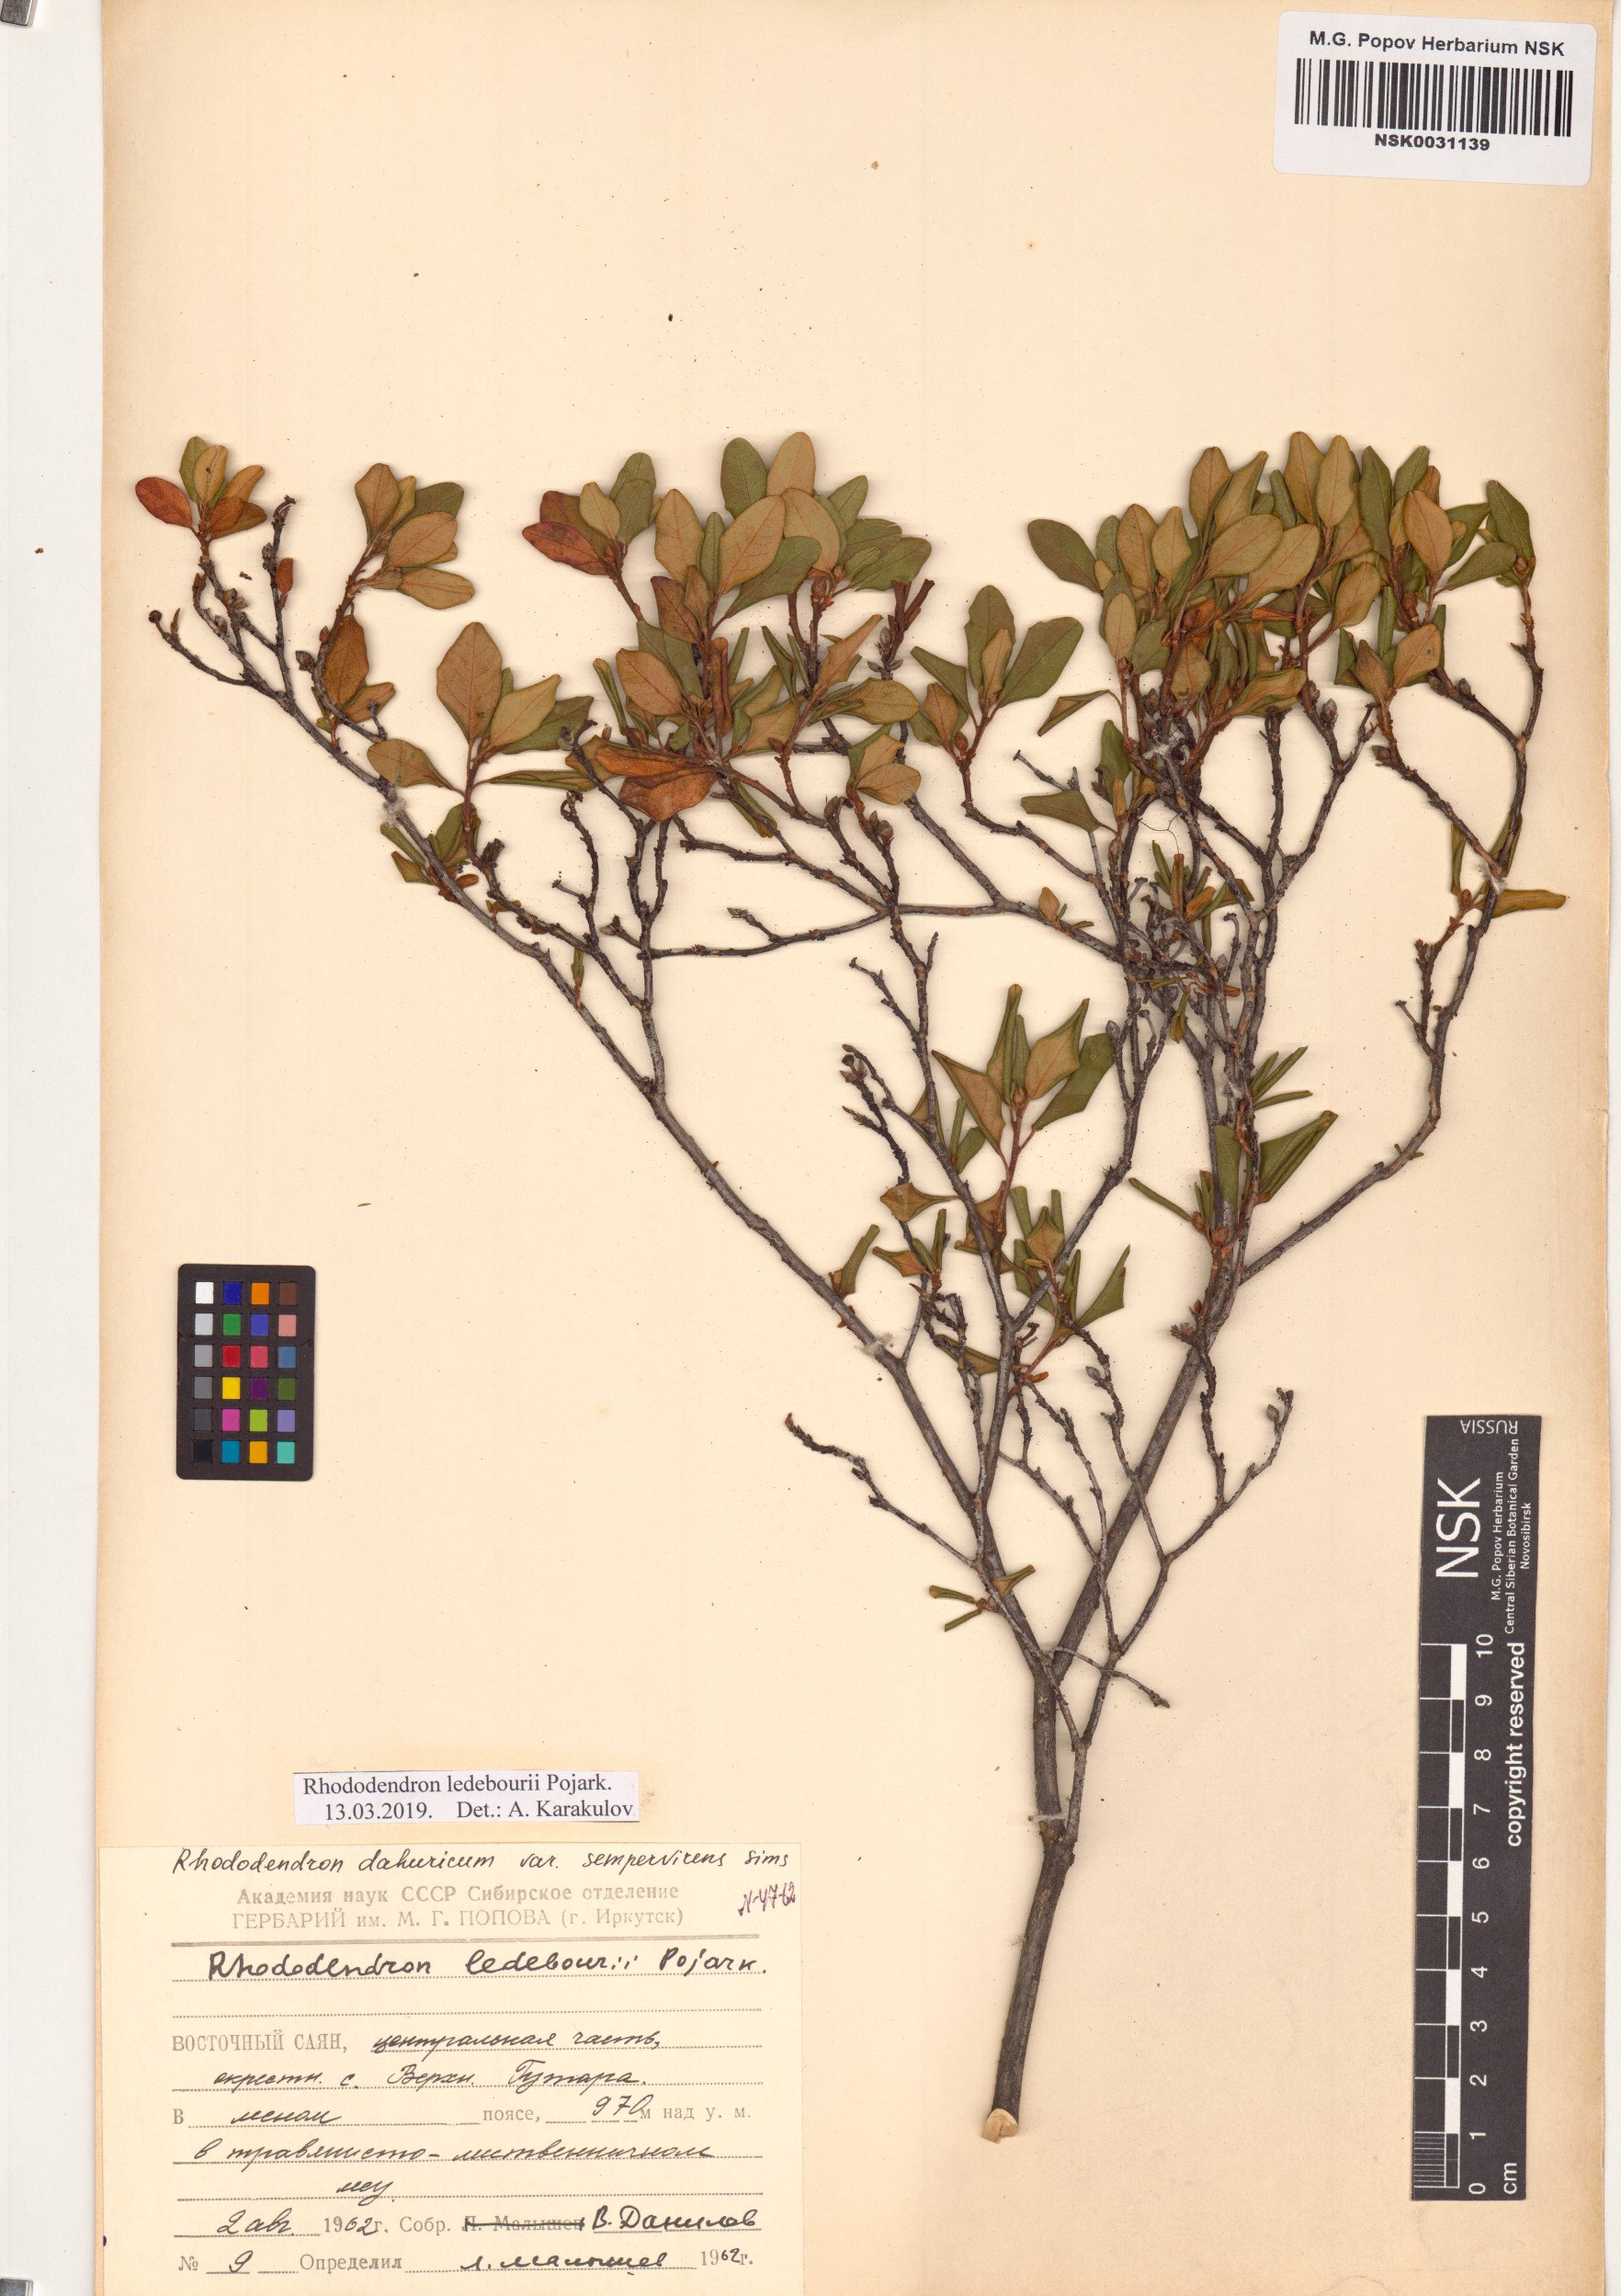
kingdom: Plantae
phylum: Tracheophyta
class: Magnoliopsida
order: Ericales
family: Ericaceae
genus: Rhododendron
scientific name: Rhododendron dauricum
